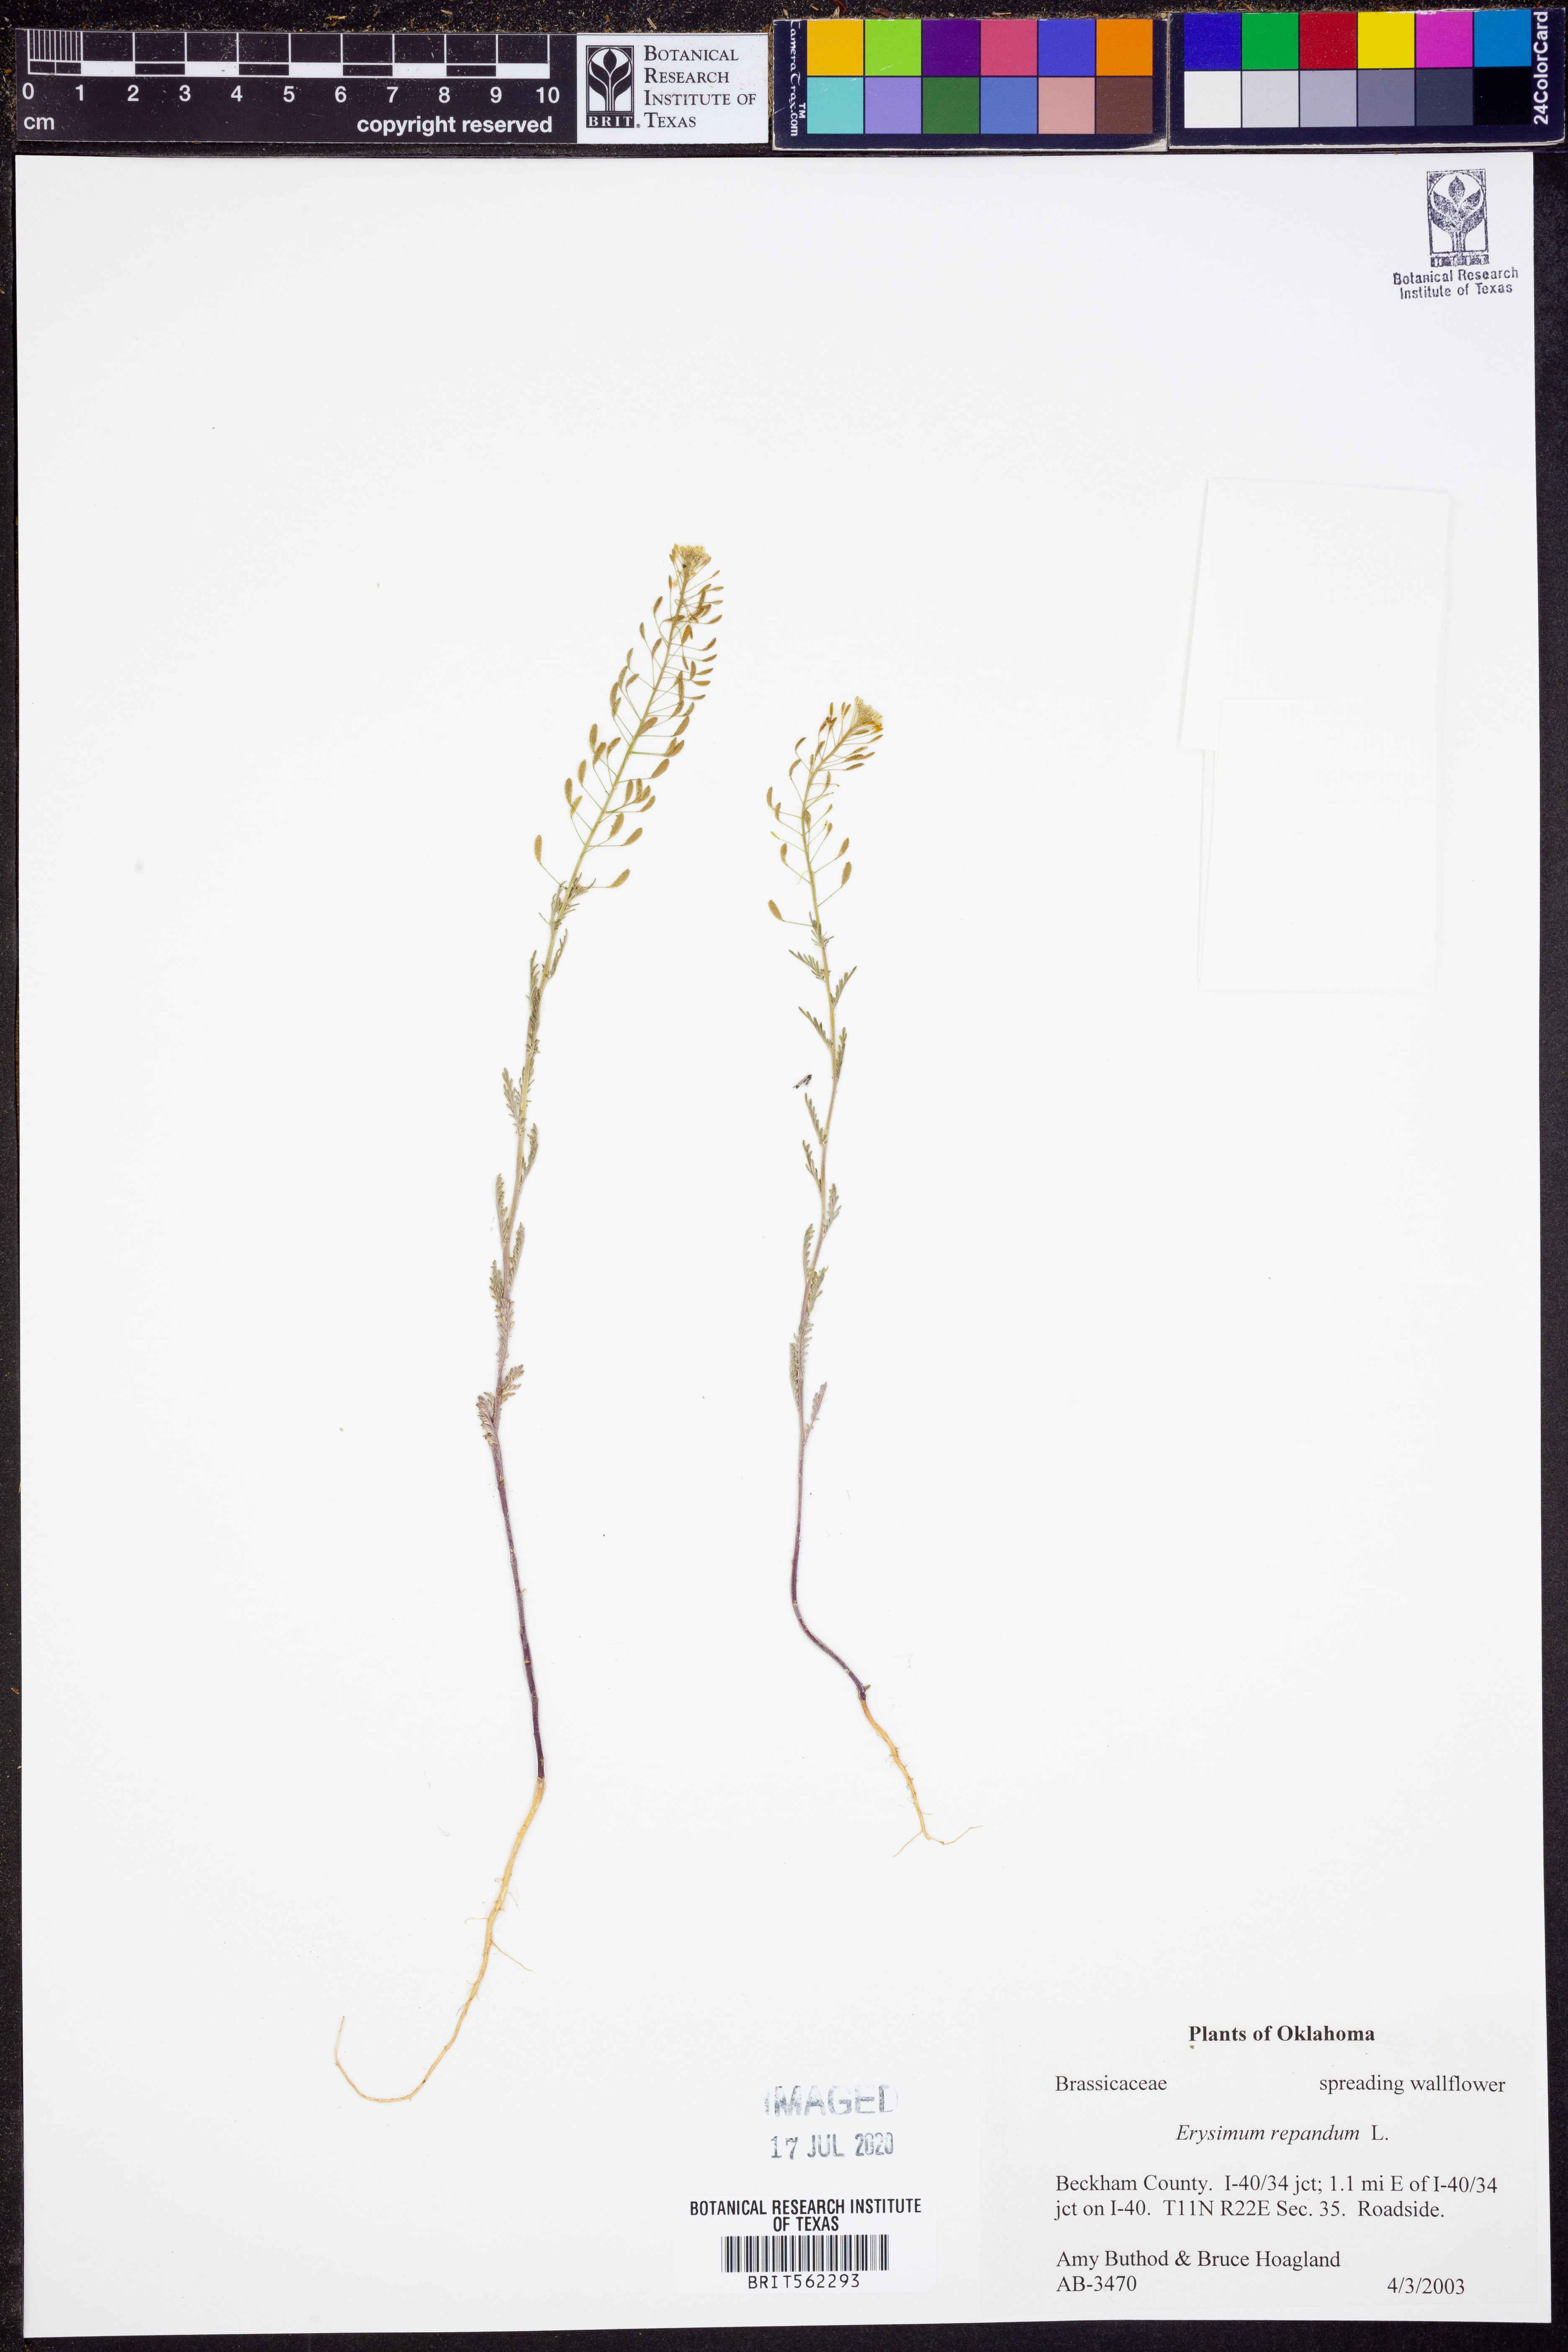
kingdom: Plantae
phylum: Tracheophyta
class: Magnoliopsida
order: Brassicales
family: Brassicaceae
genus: Erysimum
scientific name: Erysimum repandum
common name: Spreading wallflower
